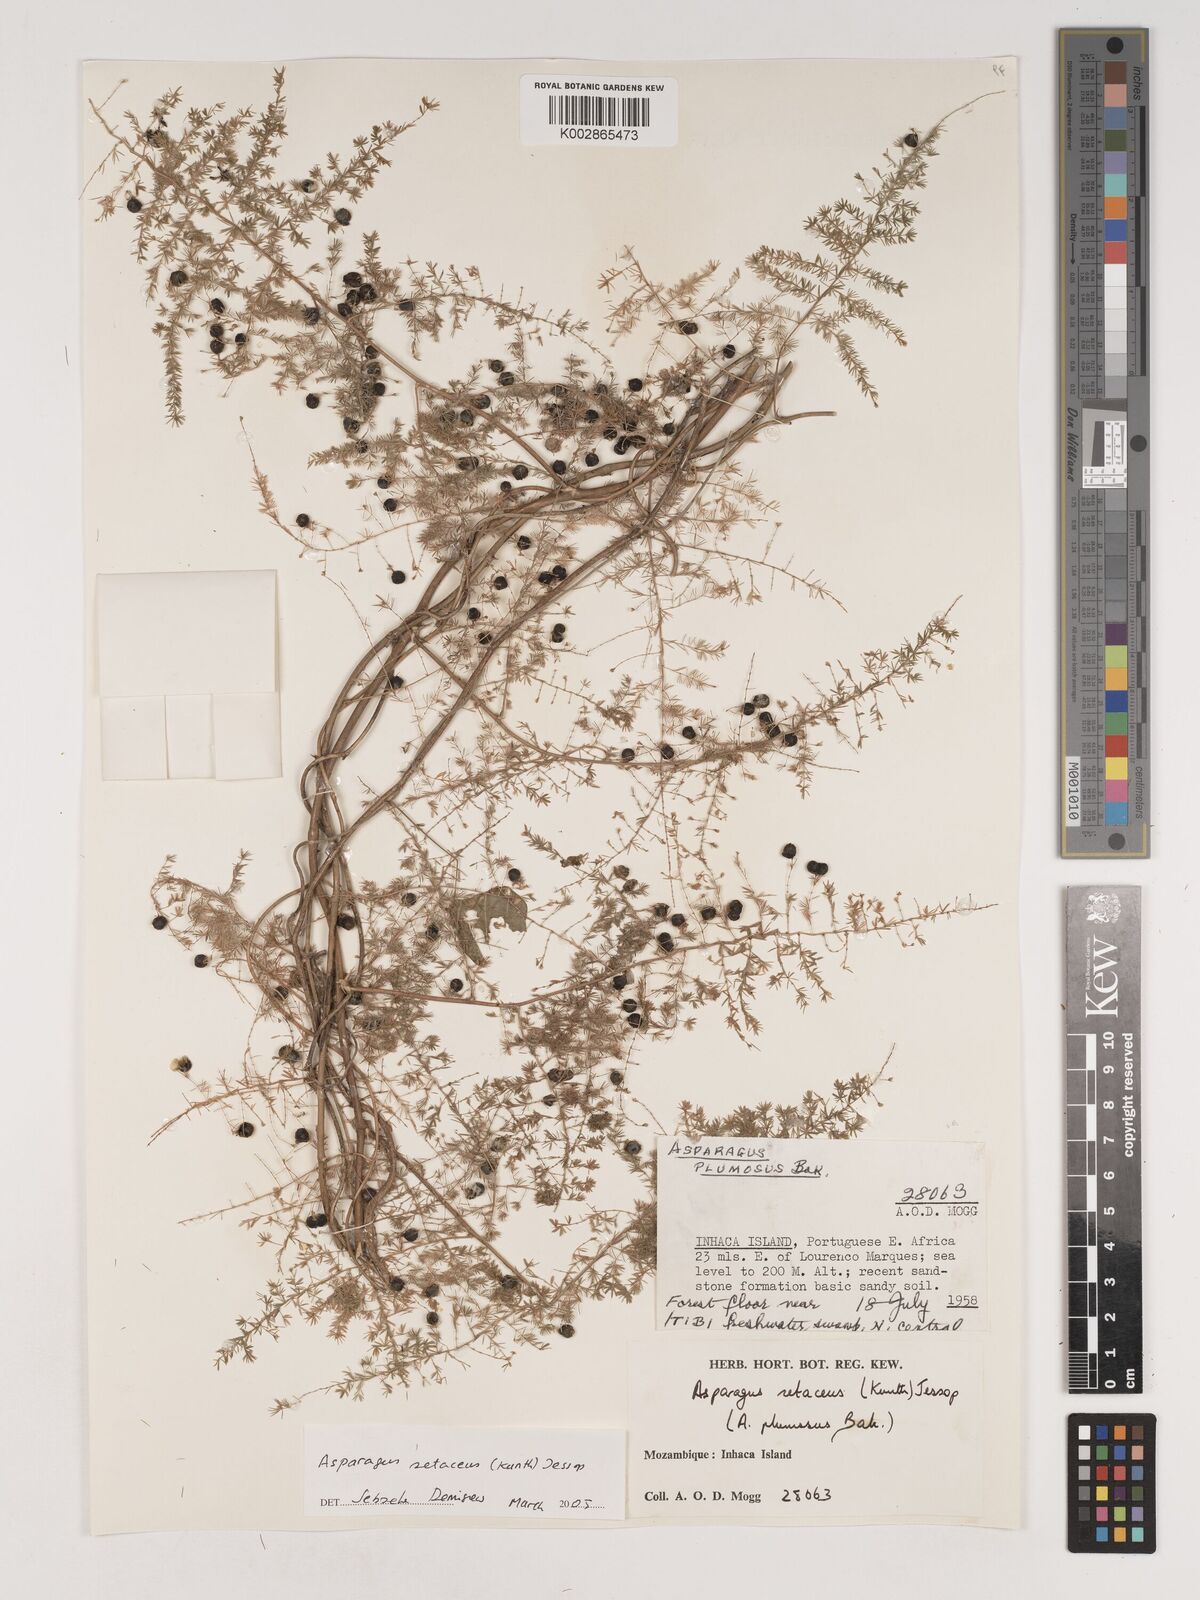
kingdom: Plantae
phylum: Tracheophyta
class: Liliopsida
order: Asparagales
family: Asparagaceae
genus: Asparagus
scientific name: Asparagus setaceus
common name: Common asparagus fern
